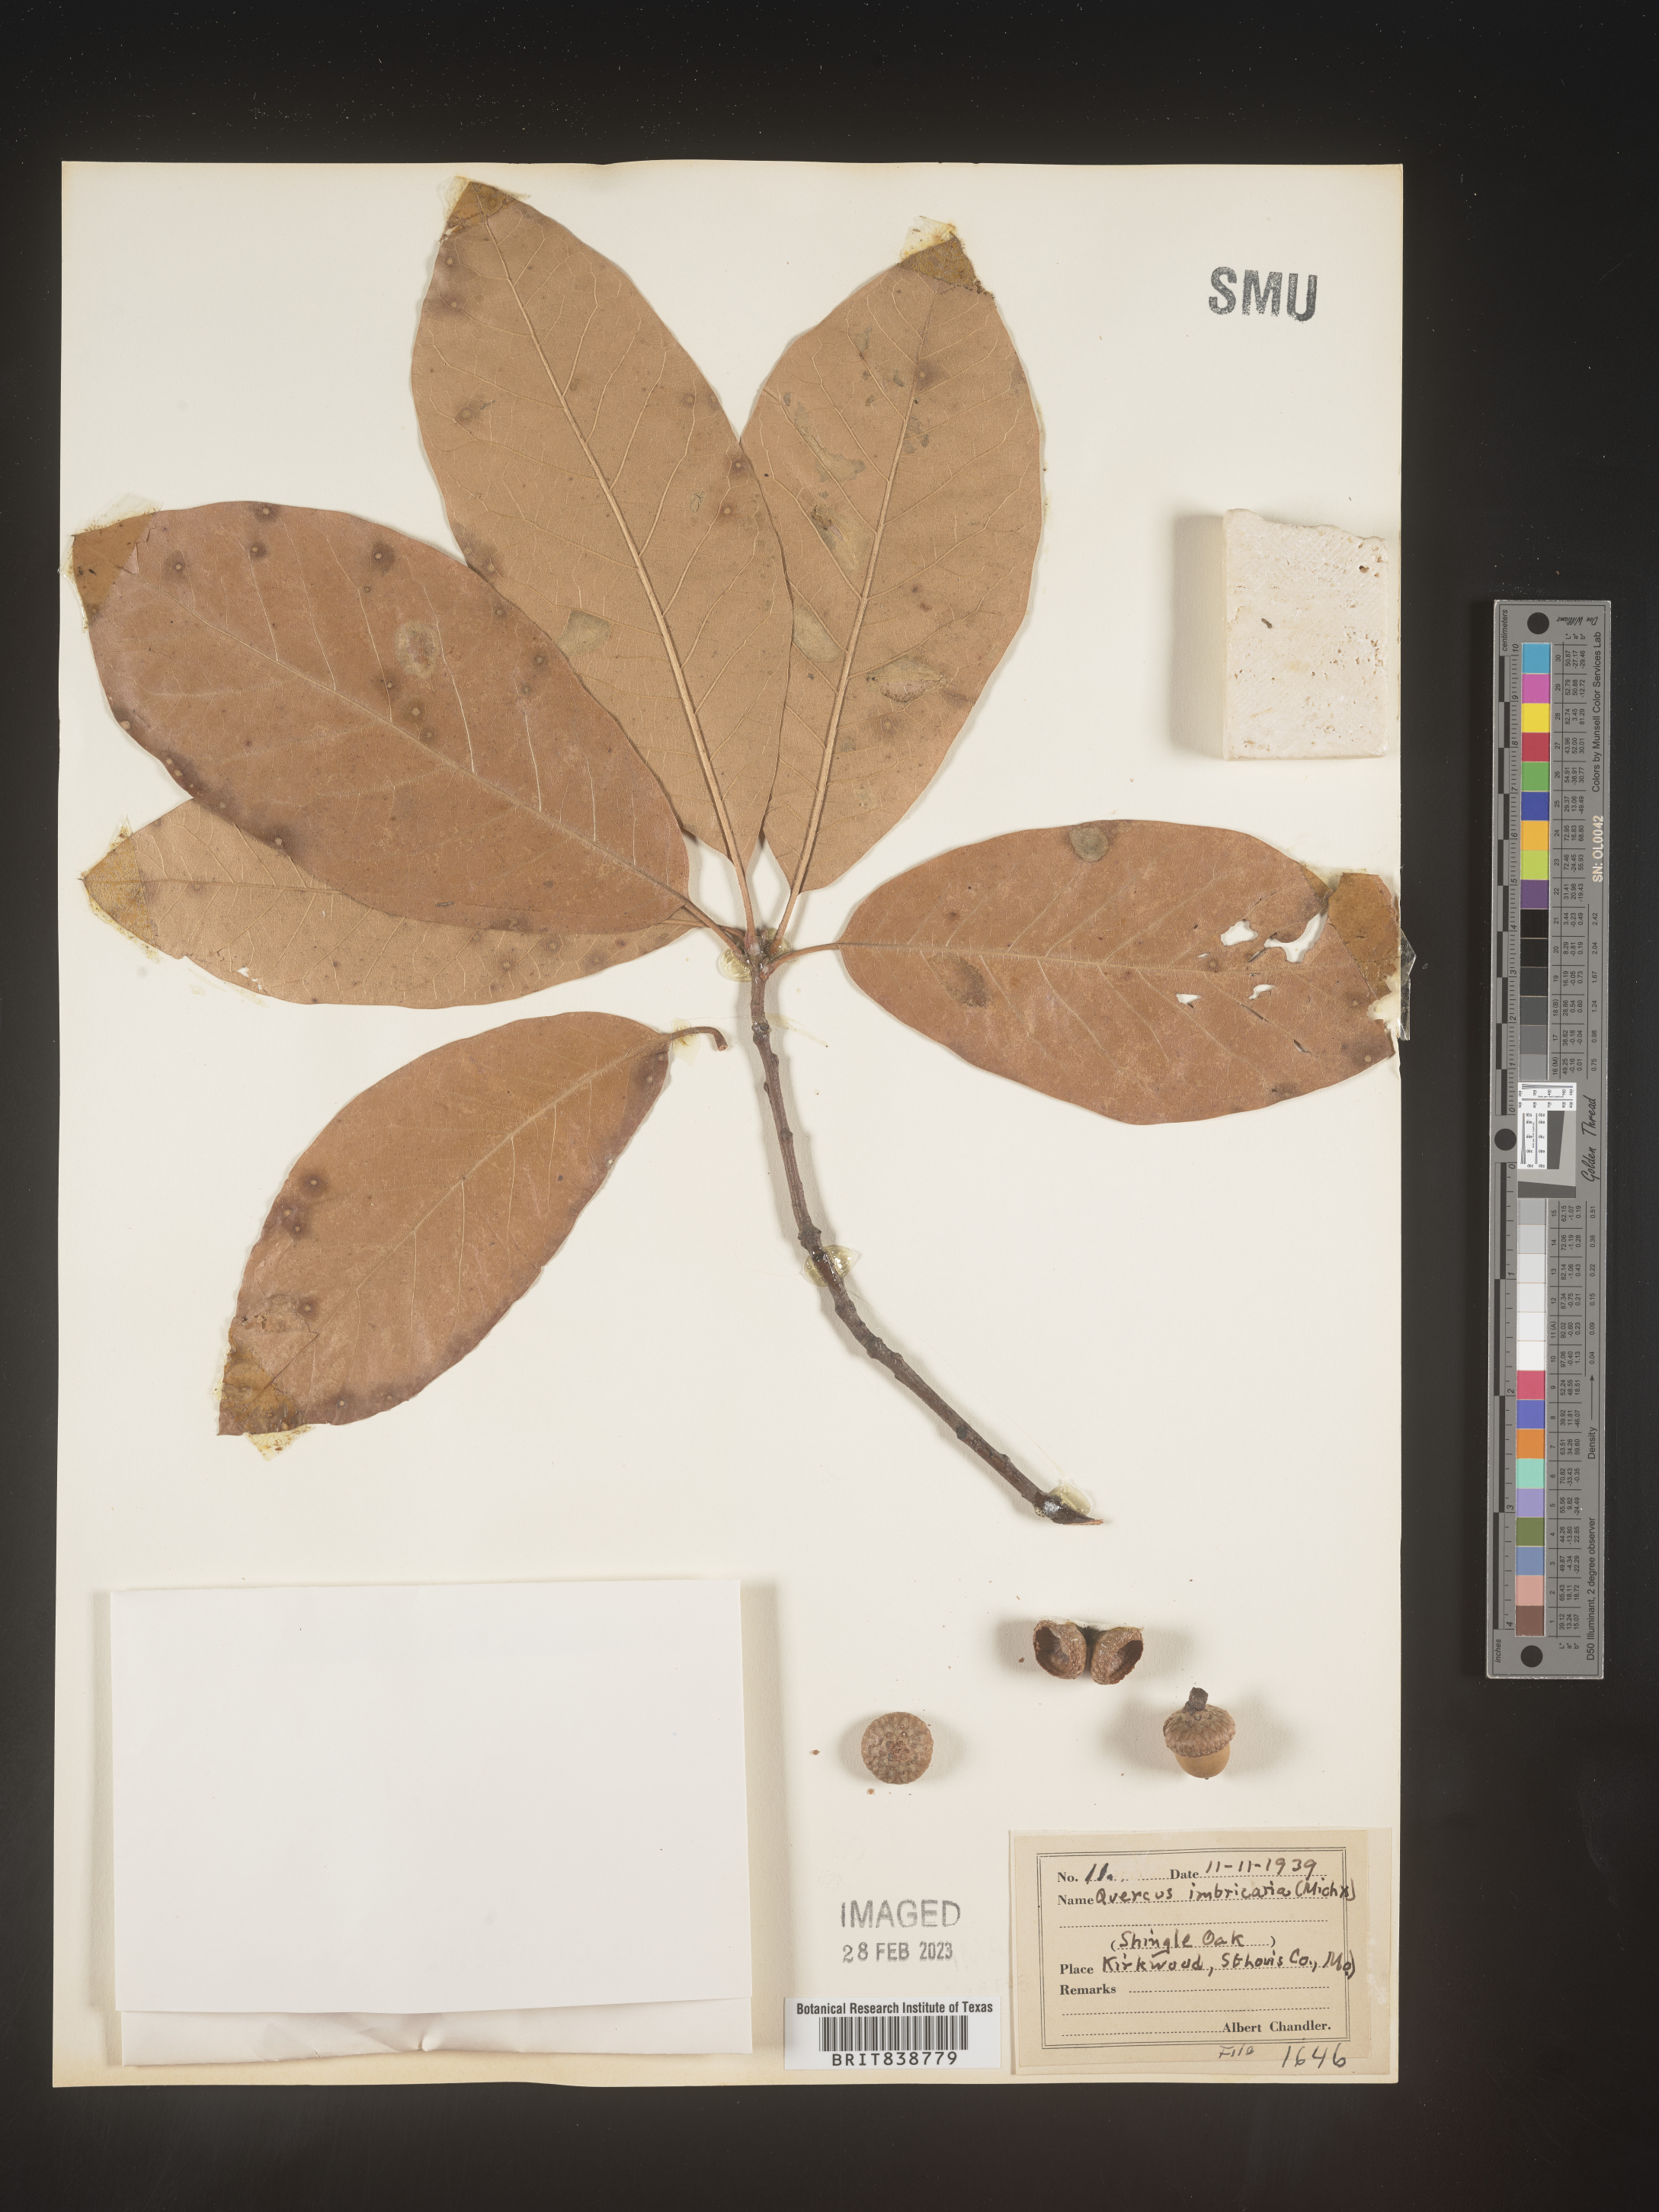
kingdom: Plantae
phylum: Tracheophyta
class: Magnoliopsida
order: Fagales
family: Fagaceae
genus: Quercus
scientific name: Quercus imbricaria
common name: Shingle oak
